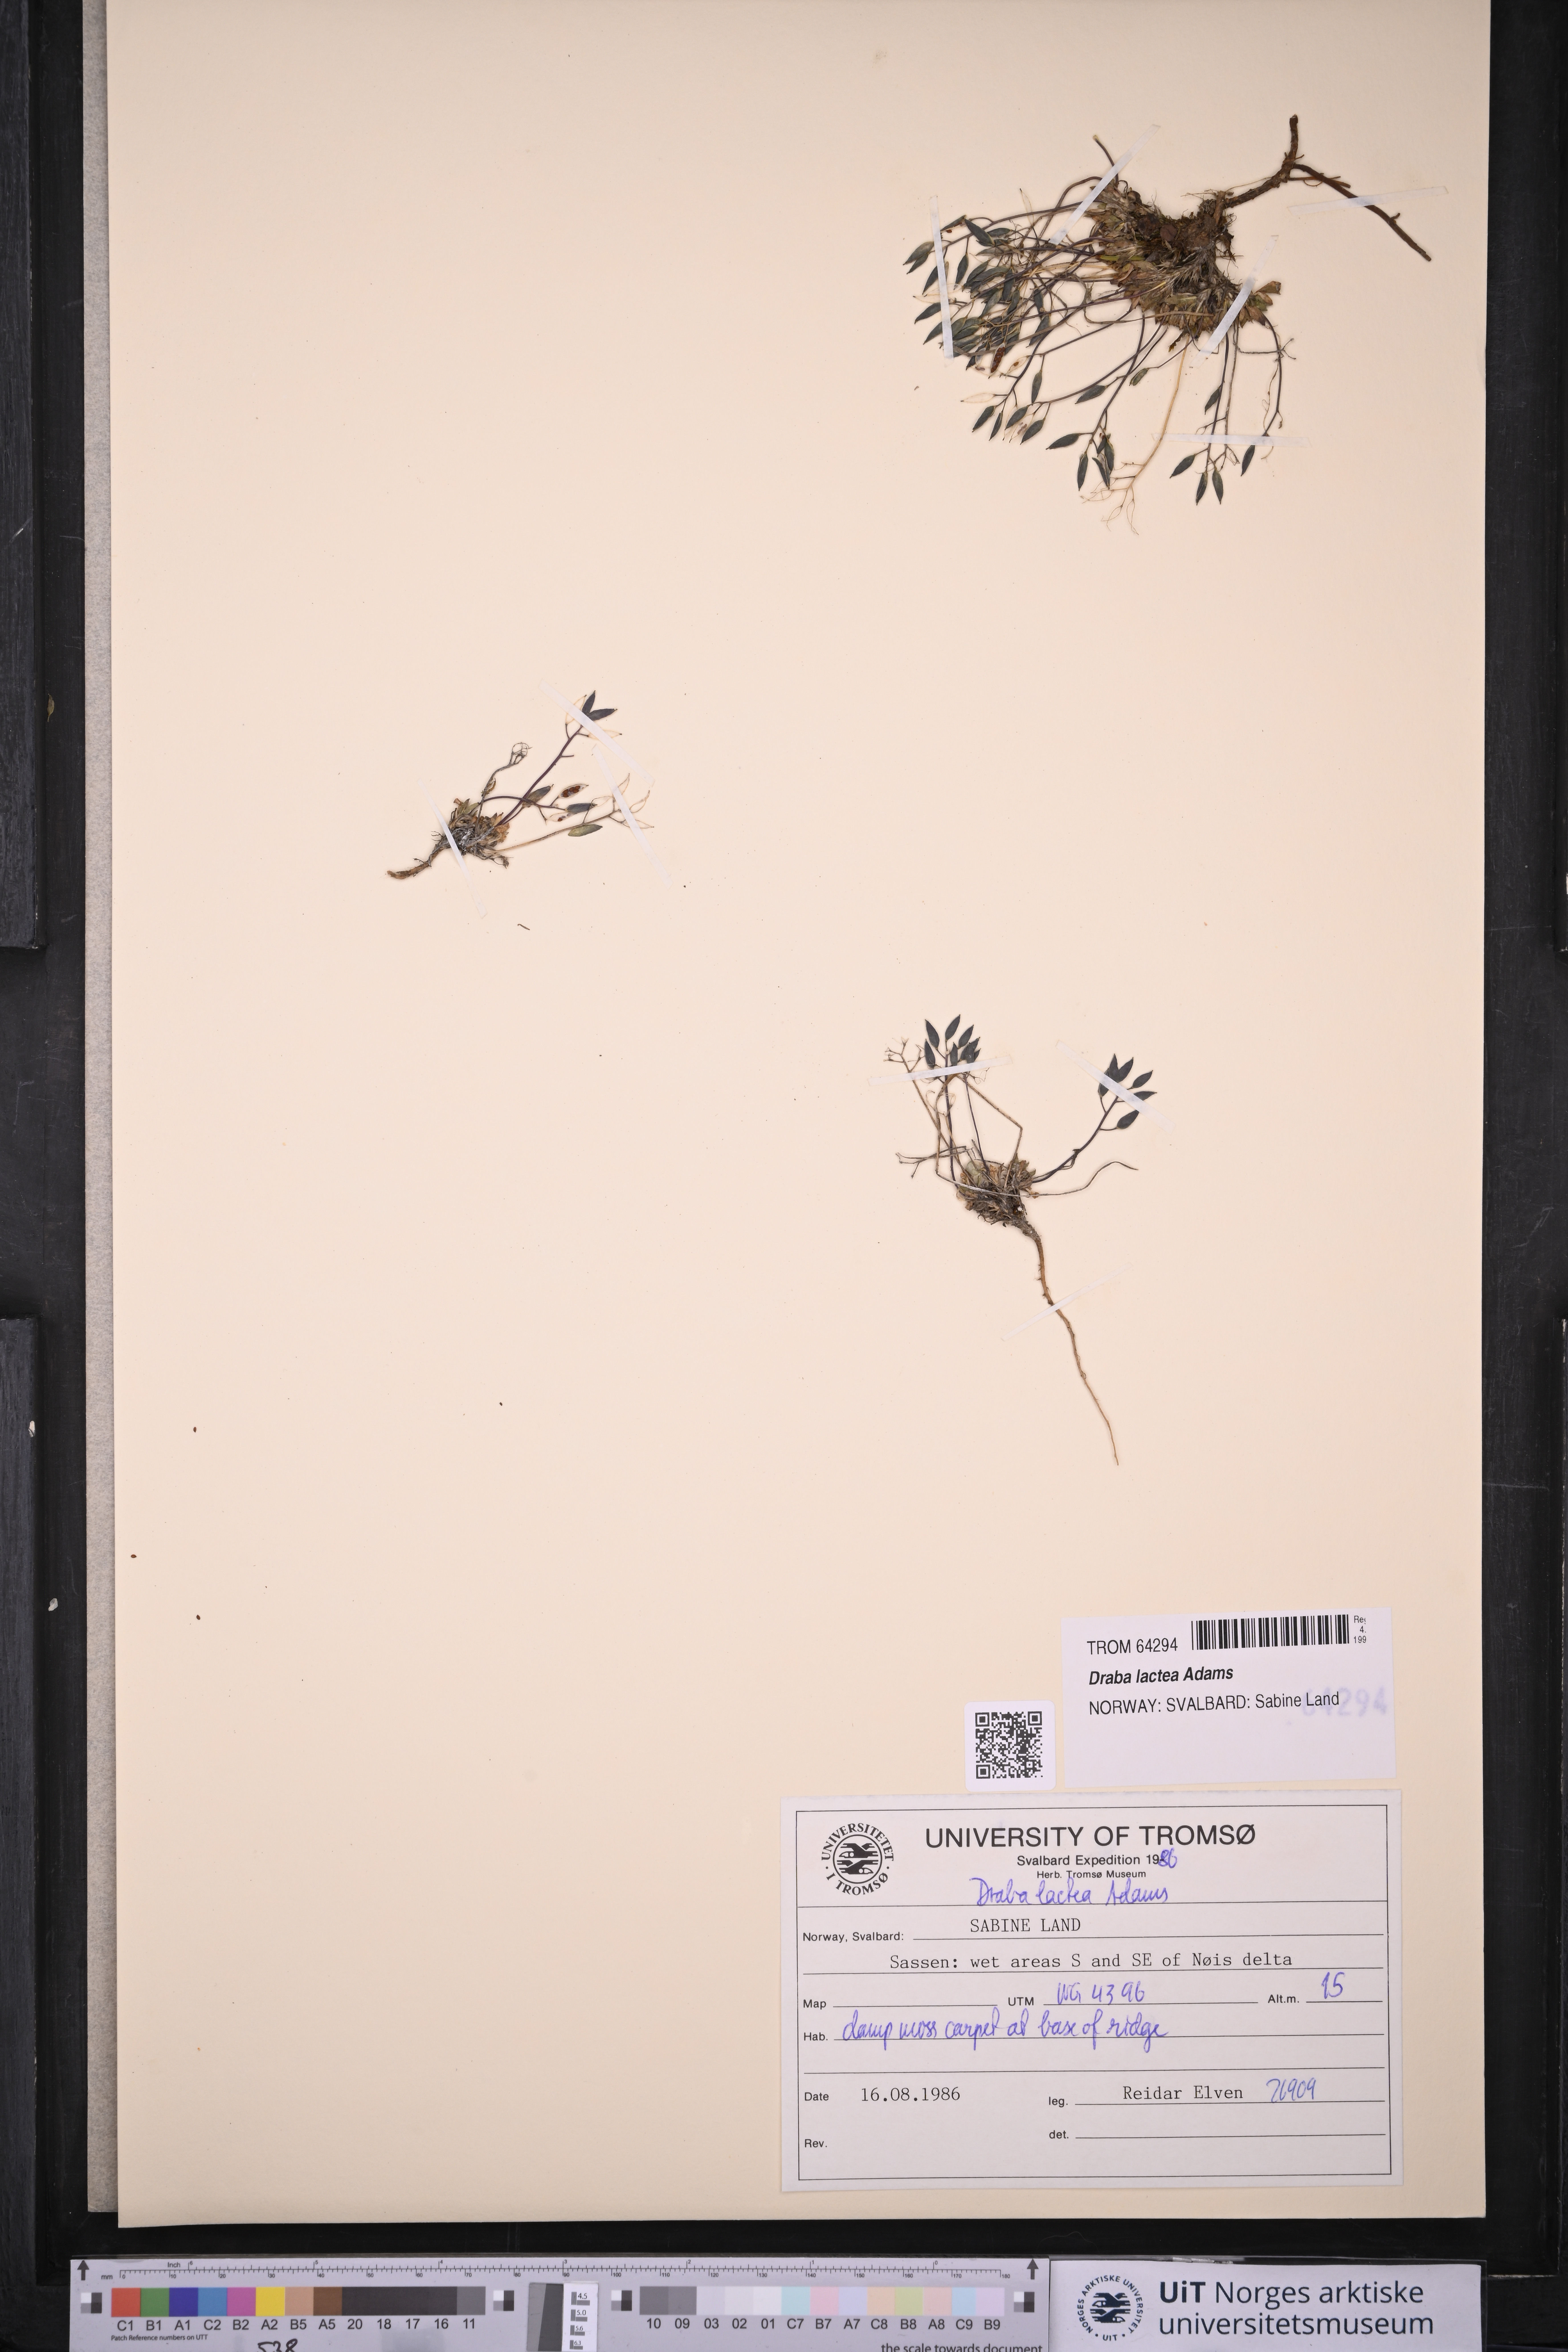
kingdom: Plantae
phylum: Tracheophyta
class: Magnoliopsida
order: Brassicales
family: Brassicaceae
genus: Draba
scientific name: Draba lactea
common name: Milky draba
